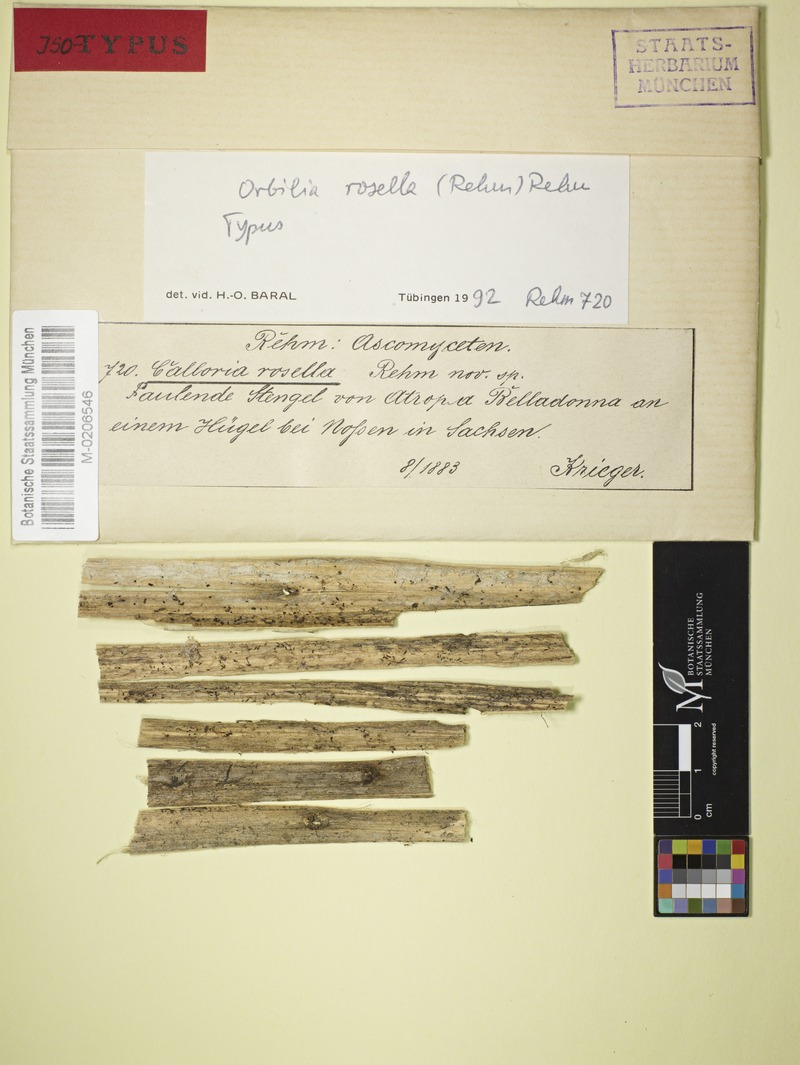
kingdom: Fungi
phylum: Ascomycota
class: Orbiliomycetes
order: Orbiliales
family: Orbiliaceae
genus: Orbilia
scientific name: Orbilia rosella
